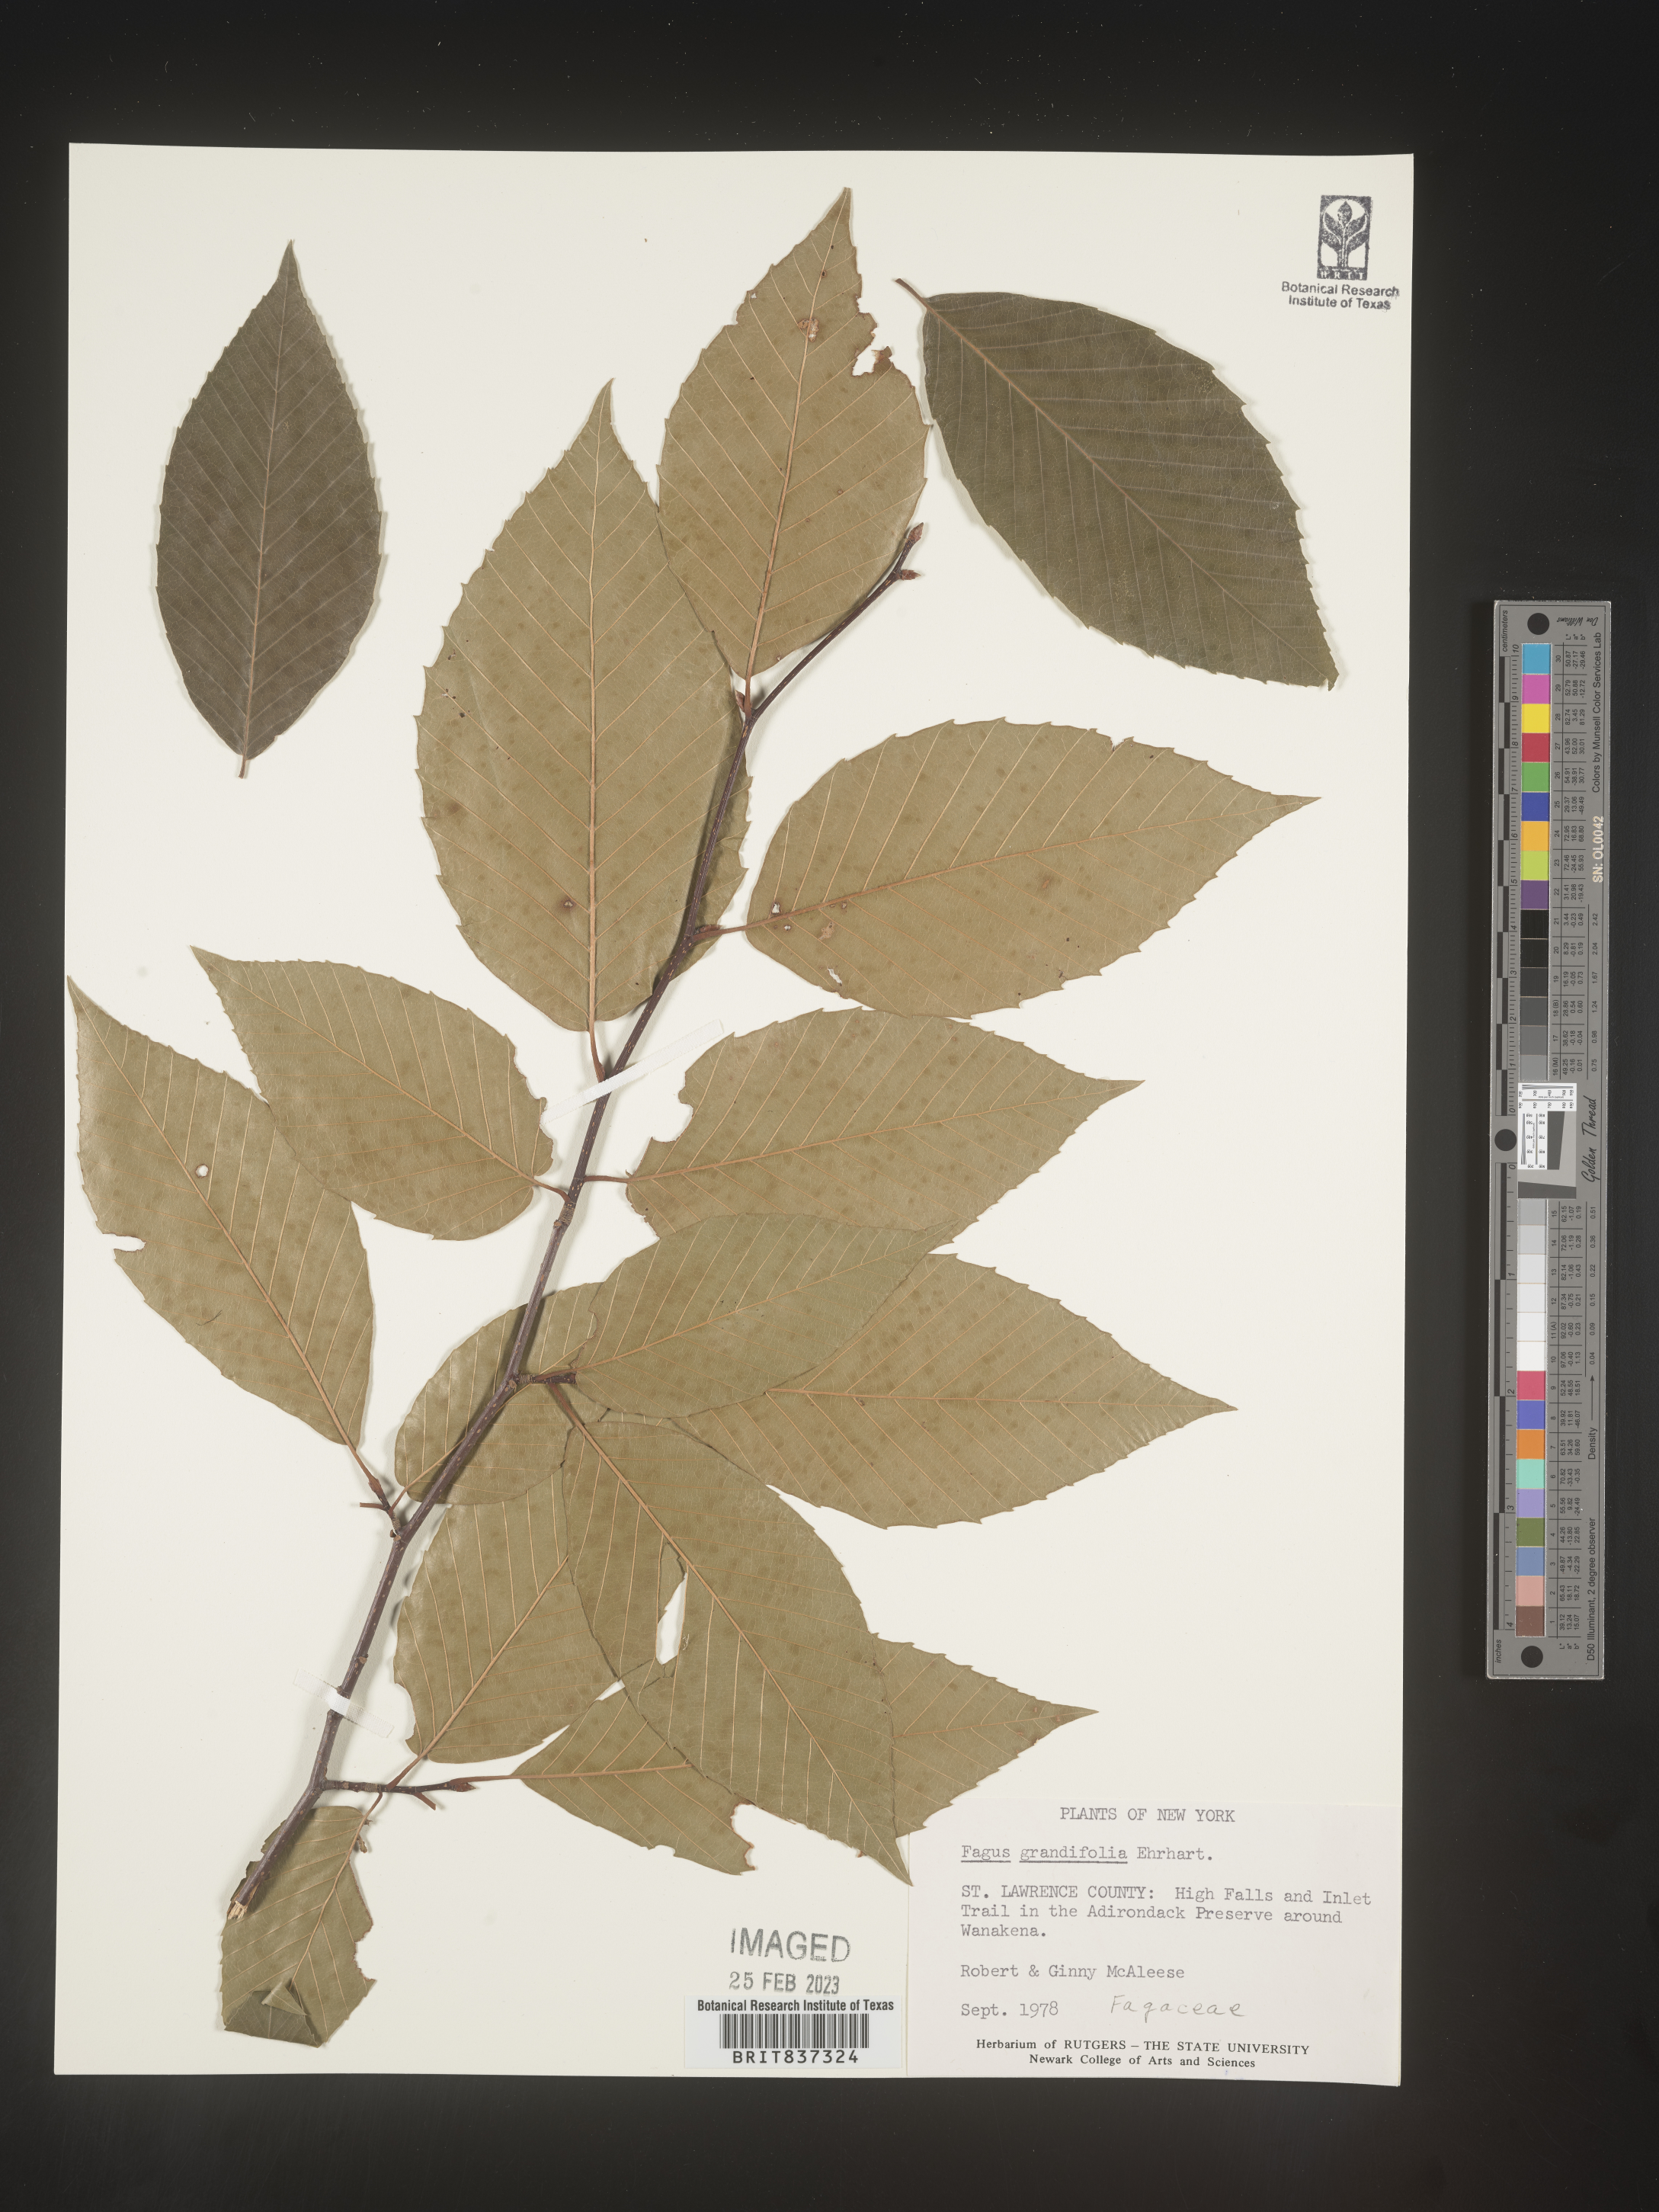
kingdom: Plantae
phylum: Tracheophyta
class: Magnoliopsida
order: Fagales
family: Fagaceae
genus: Fagus
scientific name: Fagus grandifolia
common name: American beech
